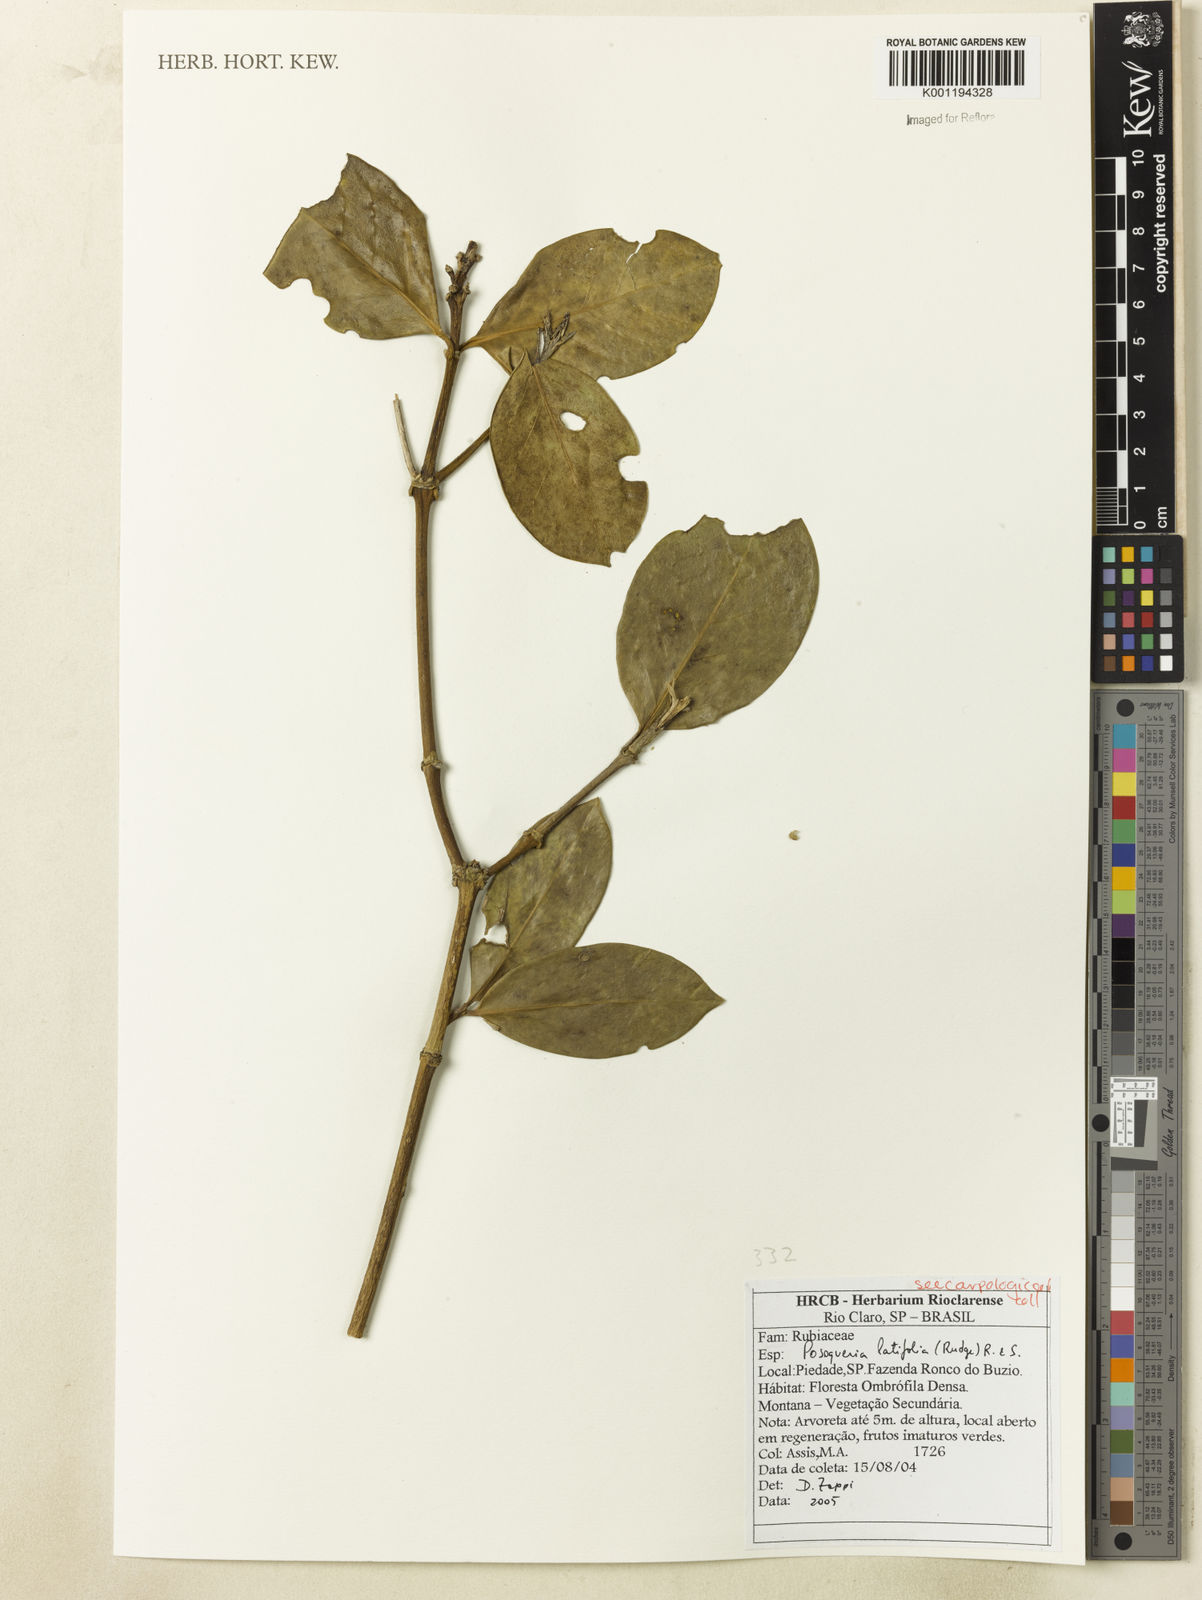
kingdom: Plantae
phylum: Tracheophyta
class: Magnoliopsida
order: Gentianales
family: Rubiaceae
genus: Posoqueria
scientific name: Posoqueria latifolia
